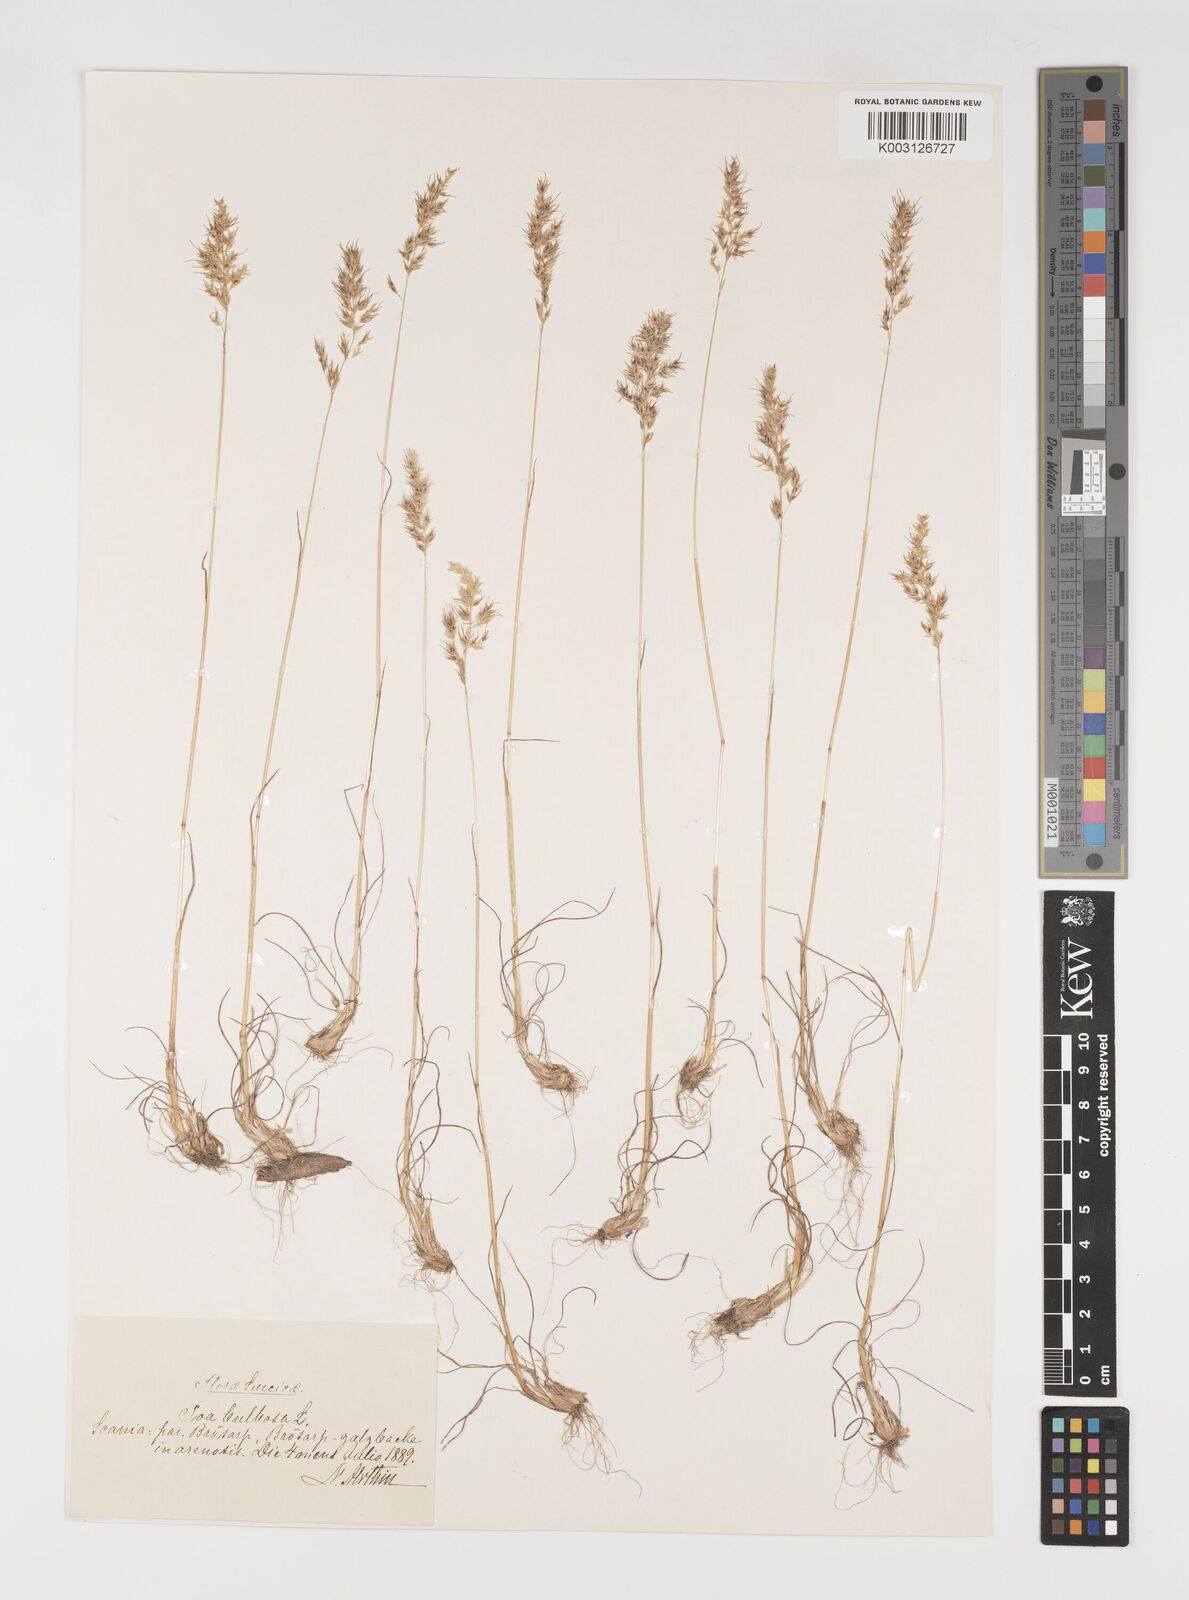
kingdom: Plantae
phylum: Tracheophyta
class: Liliopsida
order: Poales
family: Poaceae
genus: Poa
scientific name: Poa bulbosa
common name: Bulbous bluegrass
